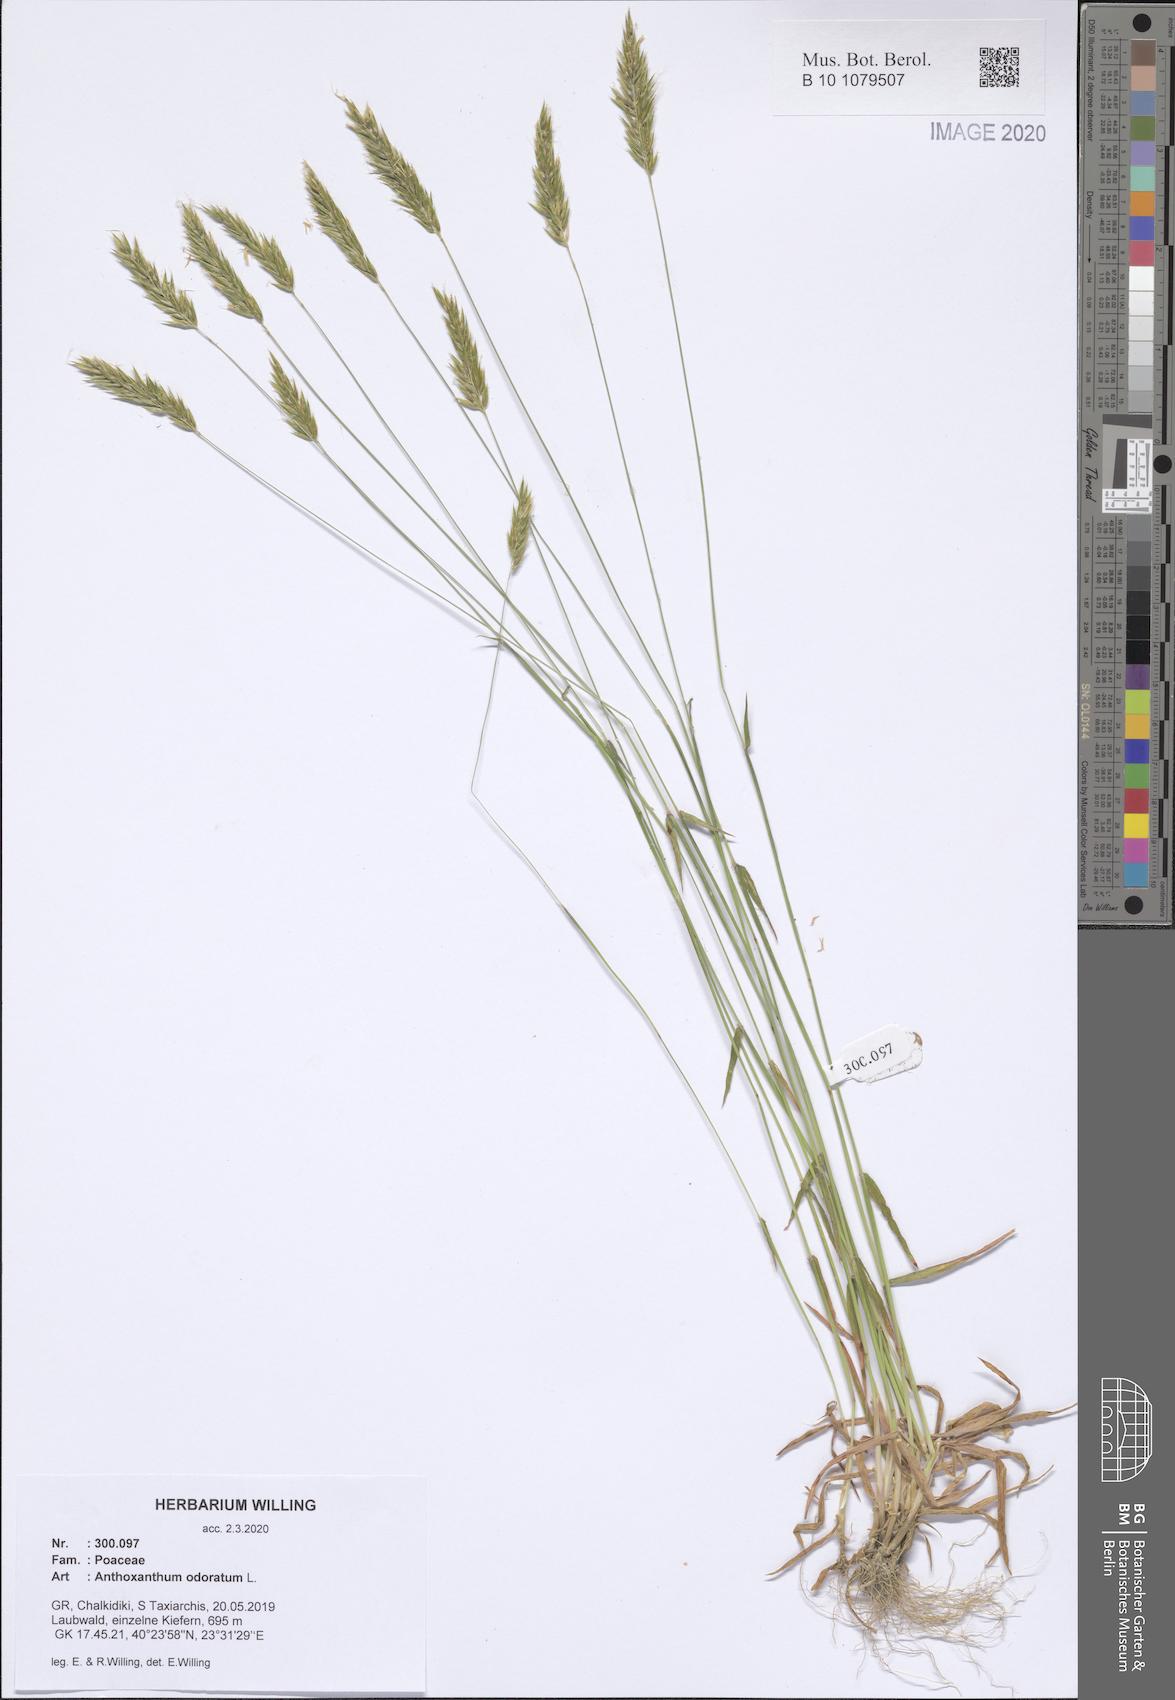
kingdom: Plantae
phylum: Tracheophyta
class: Liliopsida
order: Poales
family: Poaceae
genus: Anthoxanthum
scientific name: Anthoxanthum odoratum
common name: Sweet vernalgrass
